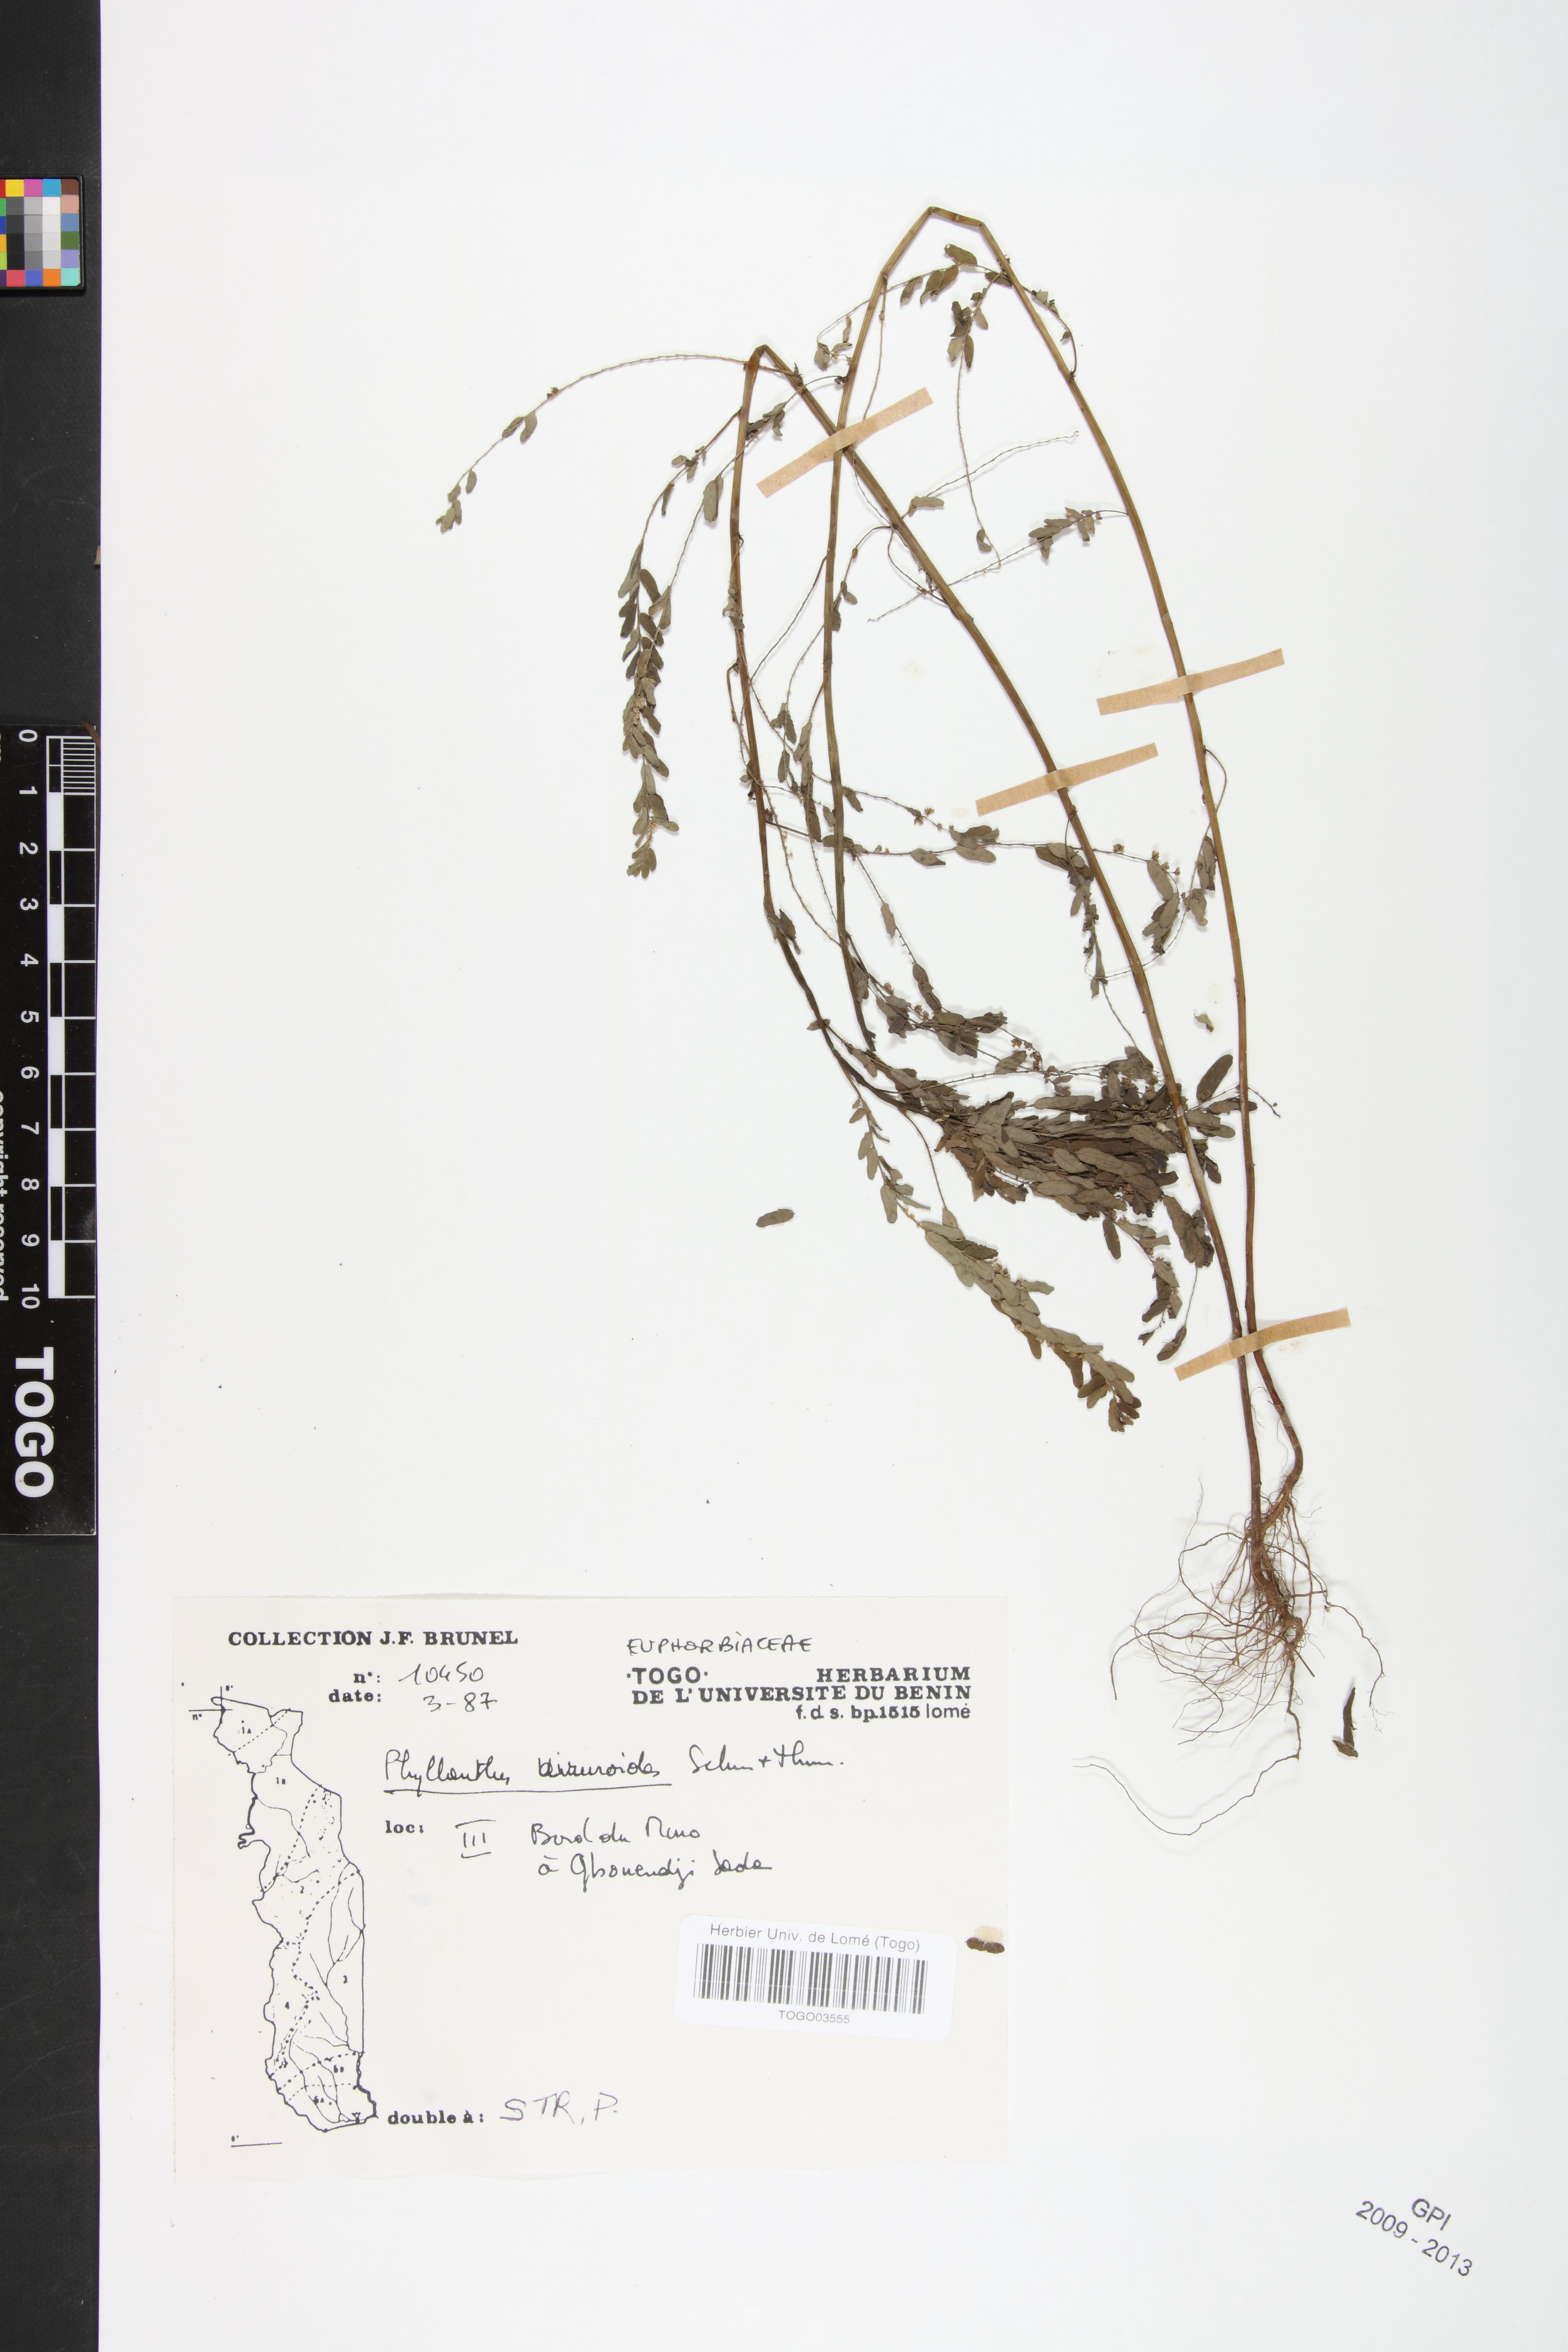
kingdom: Plantae
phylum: Tracheophyta
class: Magnoliopsida
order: Malpighiales
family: Phyllanthaceae
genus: Phyllanthus
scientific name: Phyllanthus niruroides
